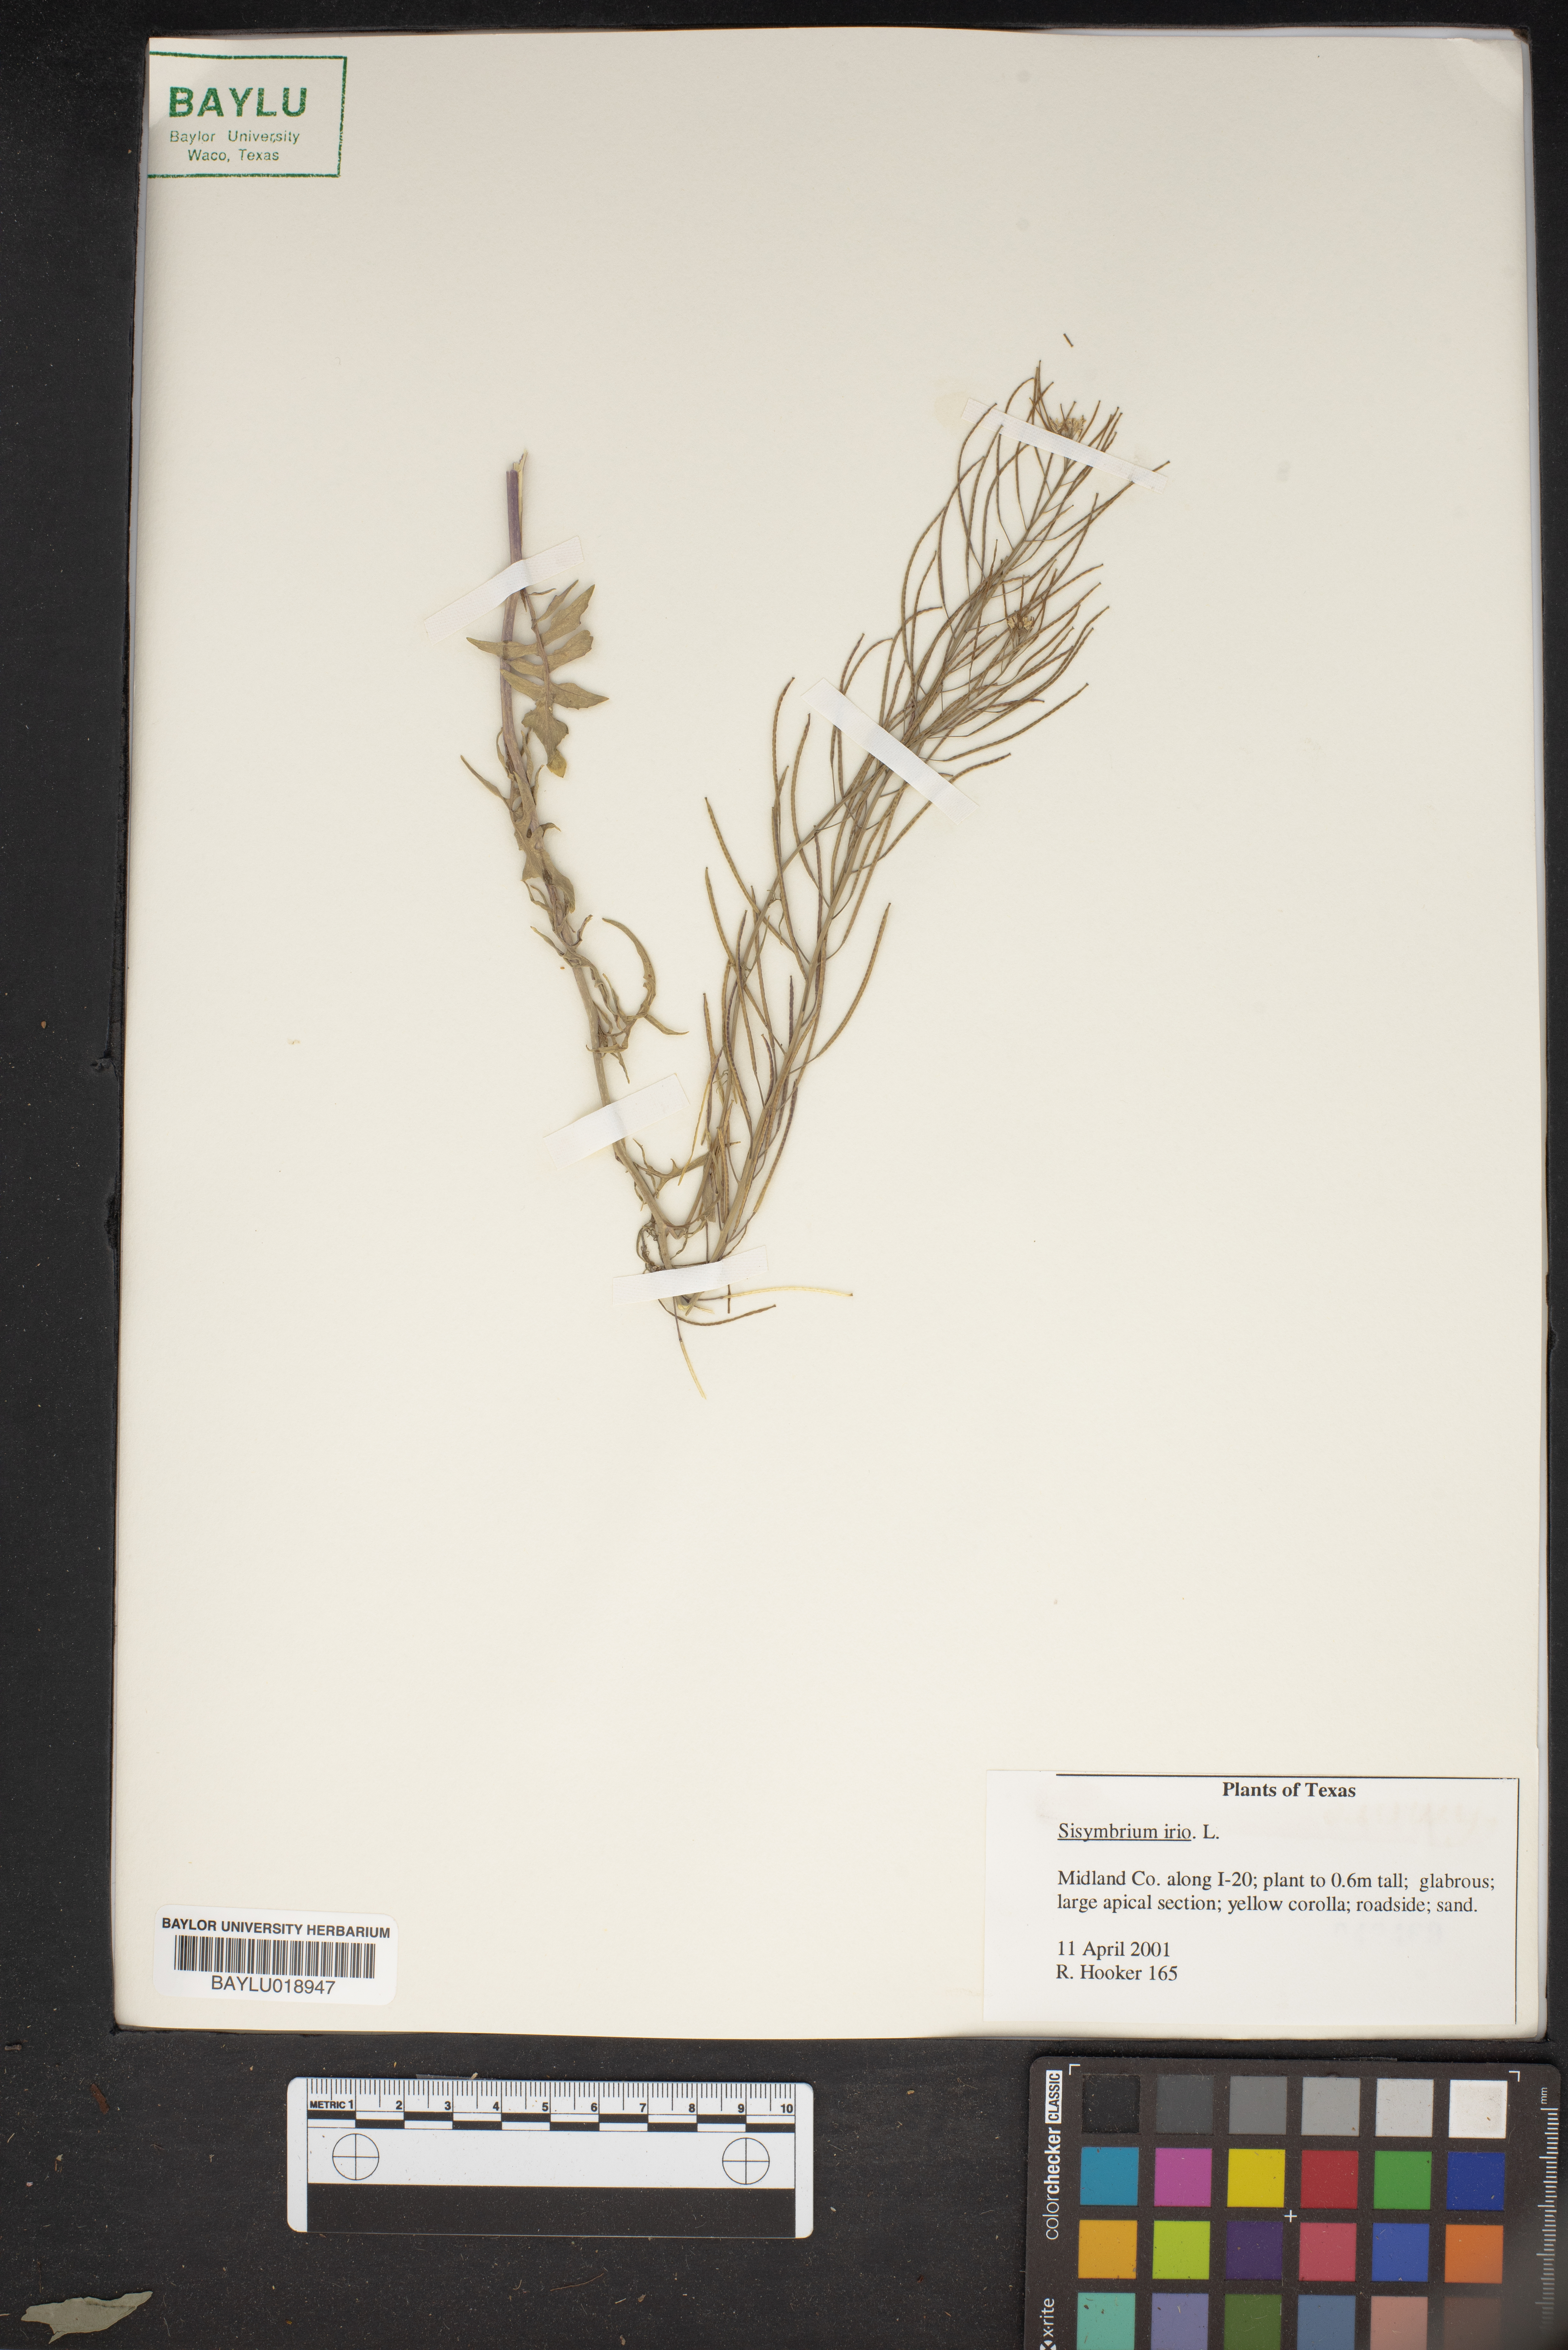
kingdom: Plantae
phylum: Tracheophyta
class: Magnoliopsida
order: Brassicales
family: Brassicaceae
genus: Sisymbrium
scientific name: Sisymbrium irio
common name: London rocket
